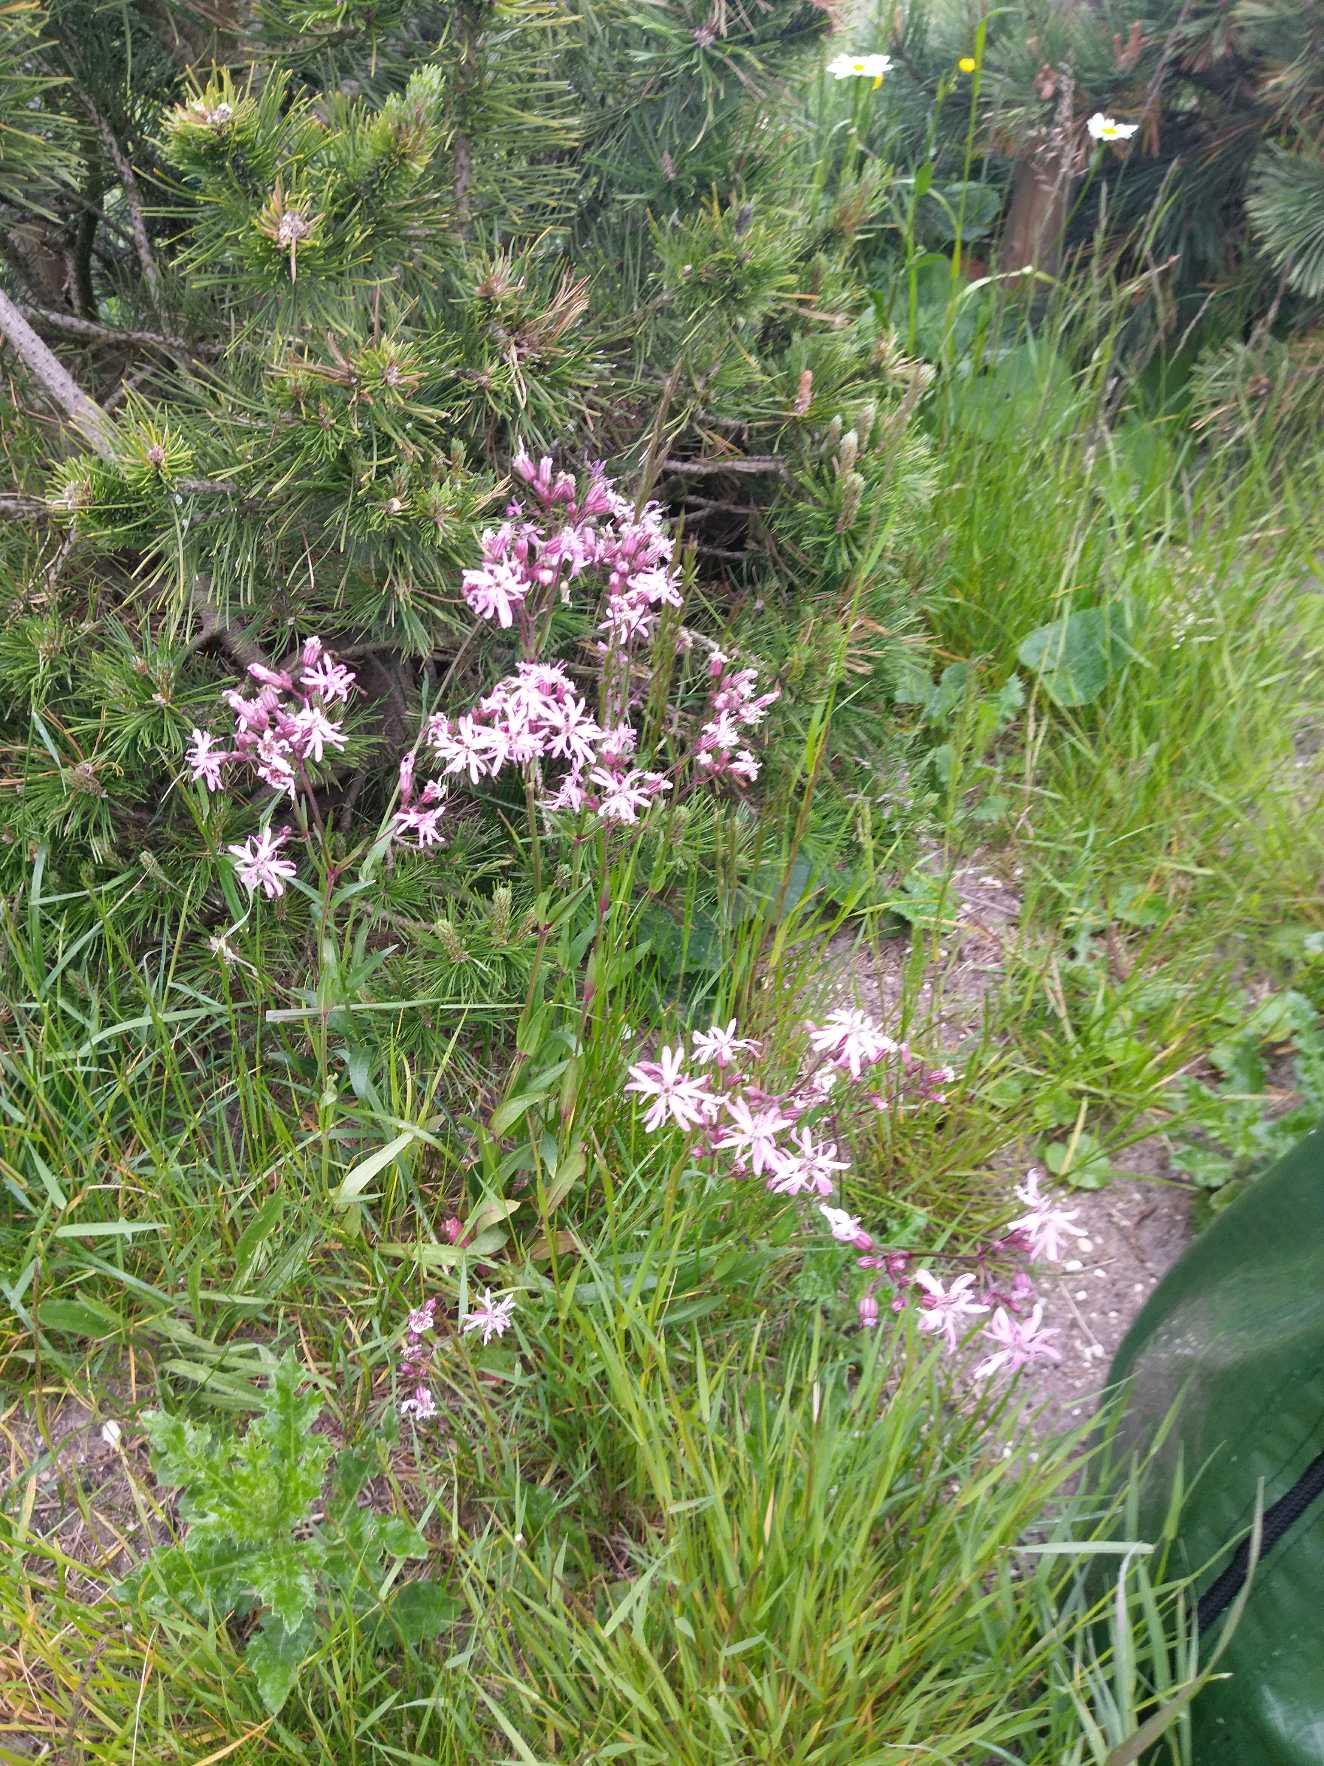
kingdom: Plantae
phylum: Tracheophyta
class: Magnoliopsida
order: Caryophyllales
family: Caryophyllaceae
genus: Silene
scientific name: Silene flos-cuculi
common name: Trævlekrone
